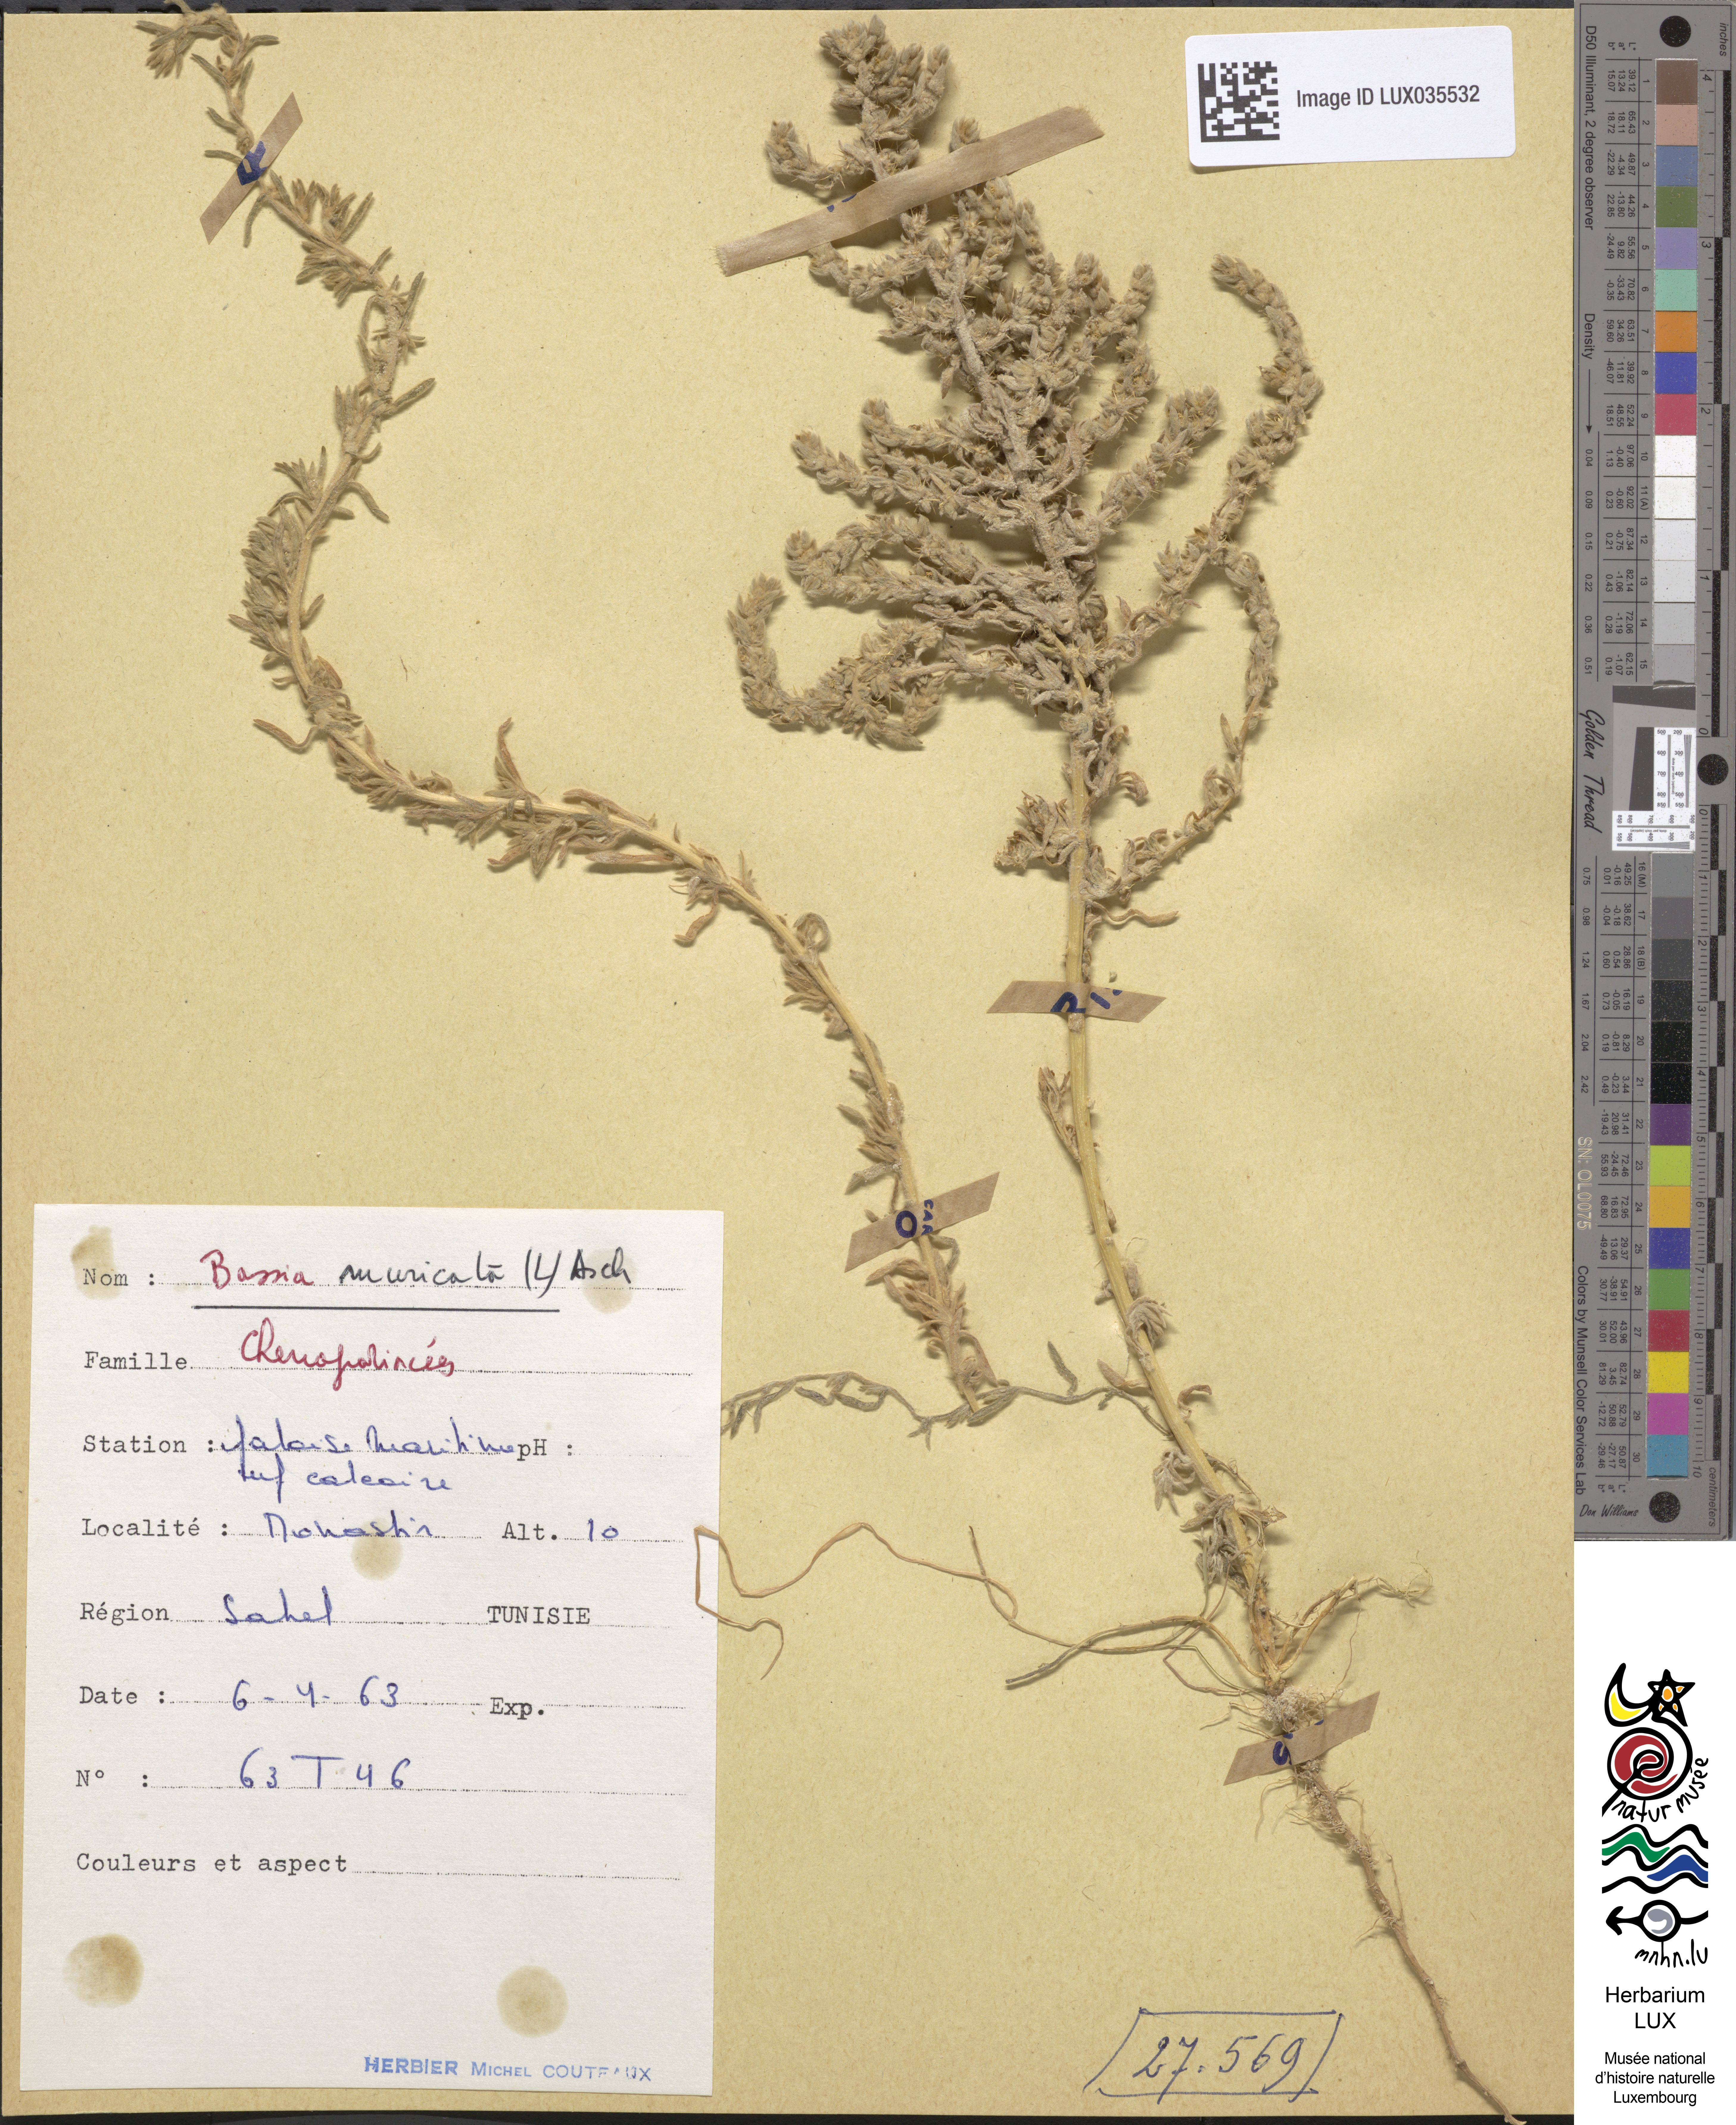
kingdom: Plantae
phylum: Tracheophyta
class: Magnoliopsida
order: Caryophyllales
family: Amaranthaceae
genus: Bassia
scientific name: Bassia muricata
